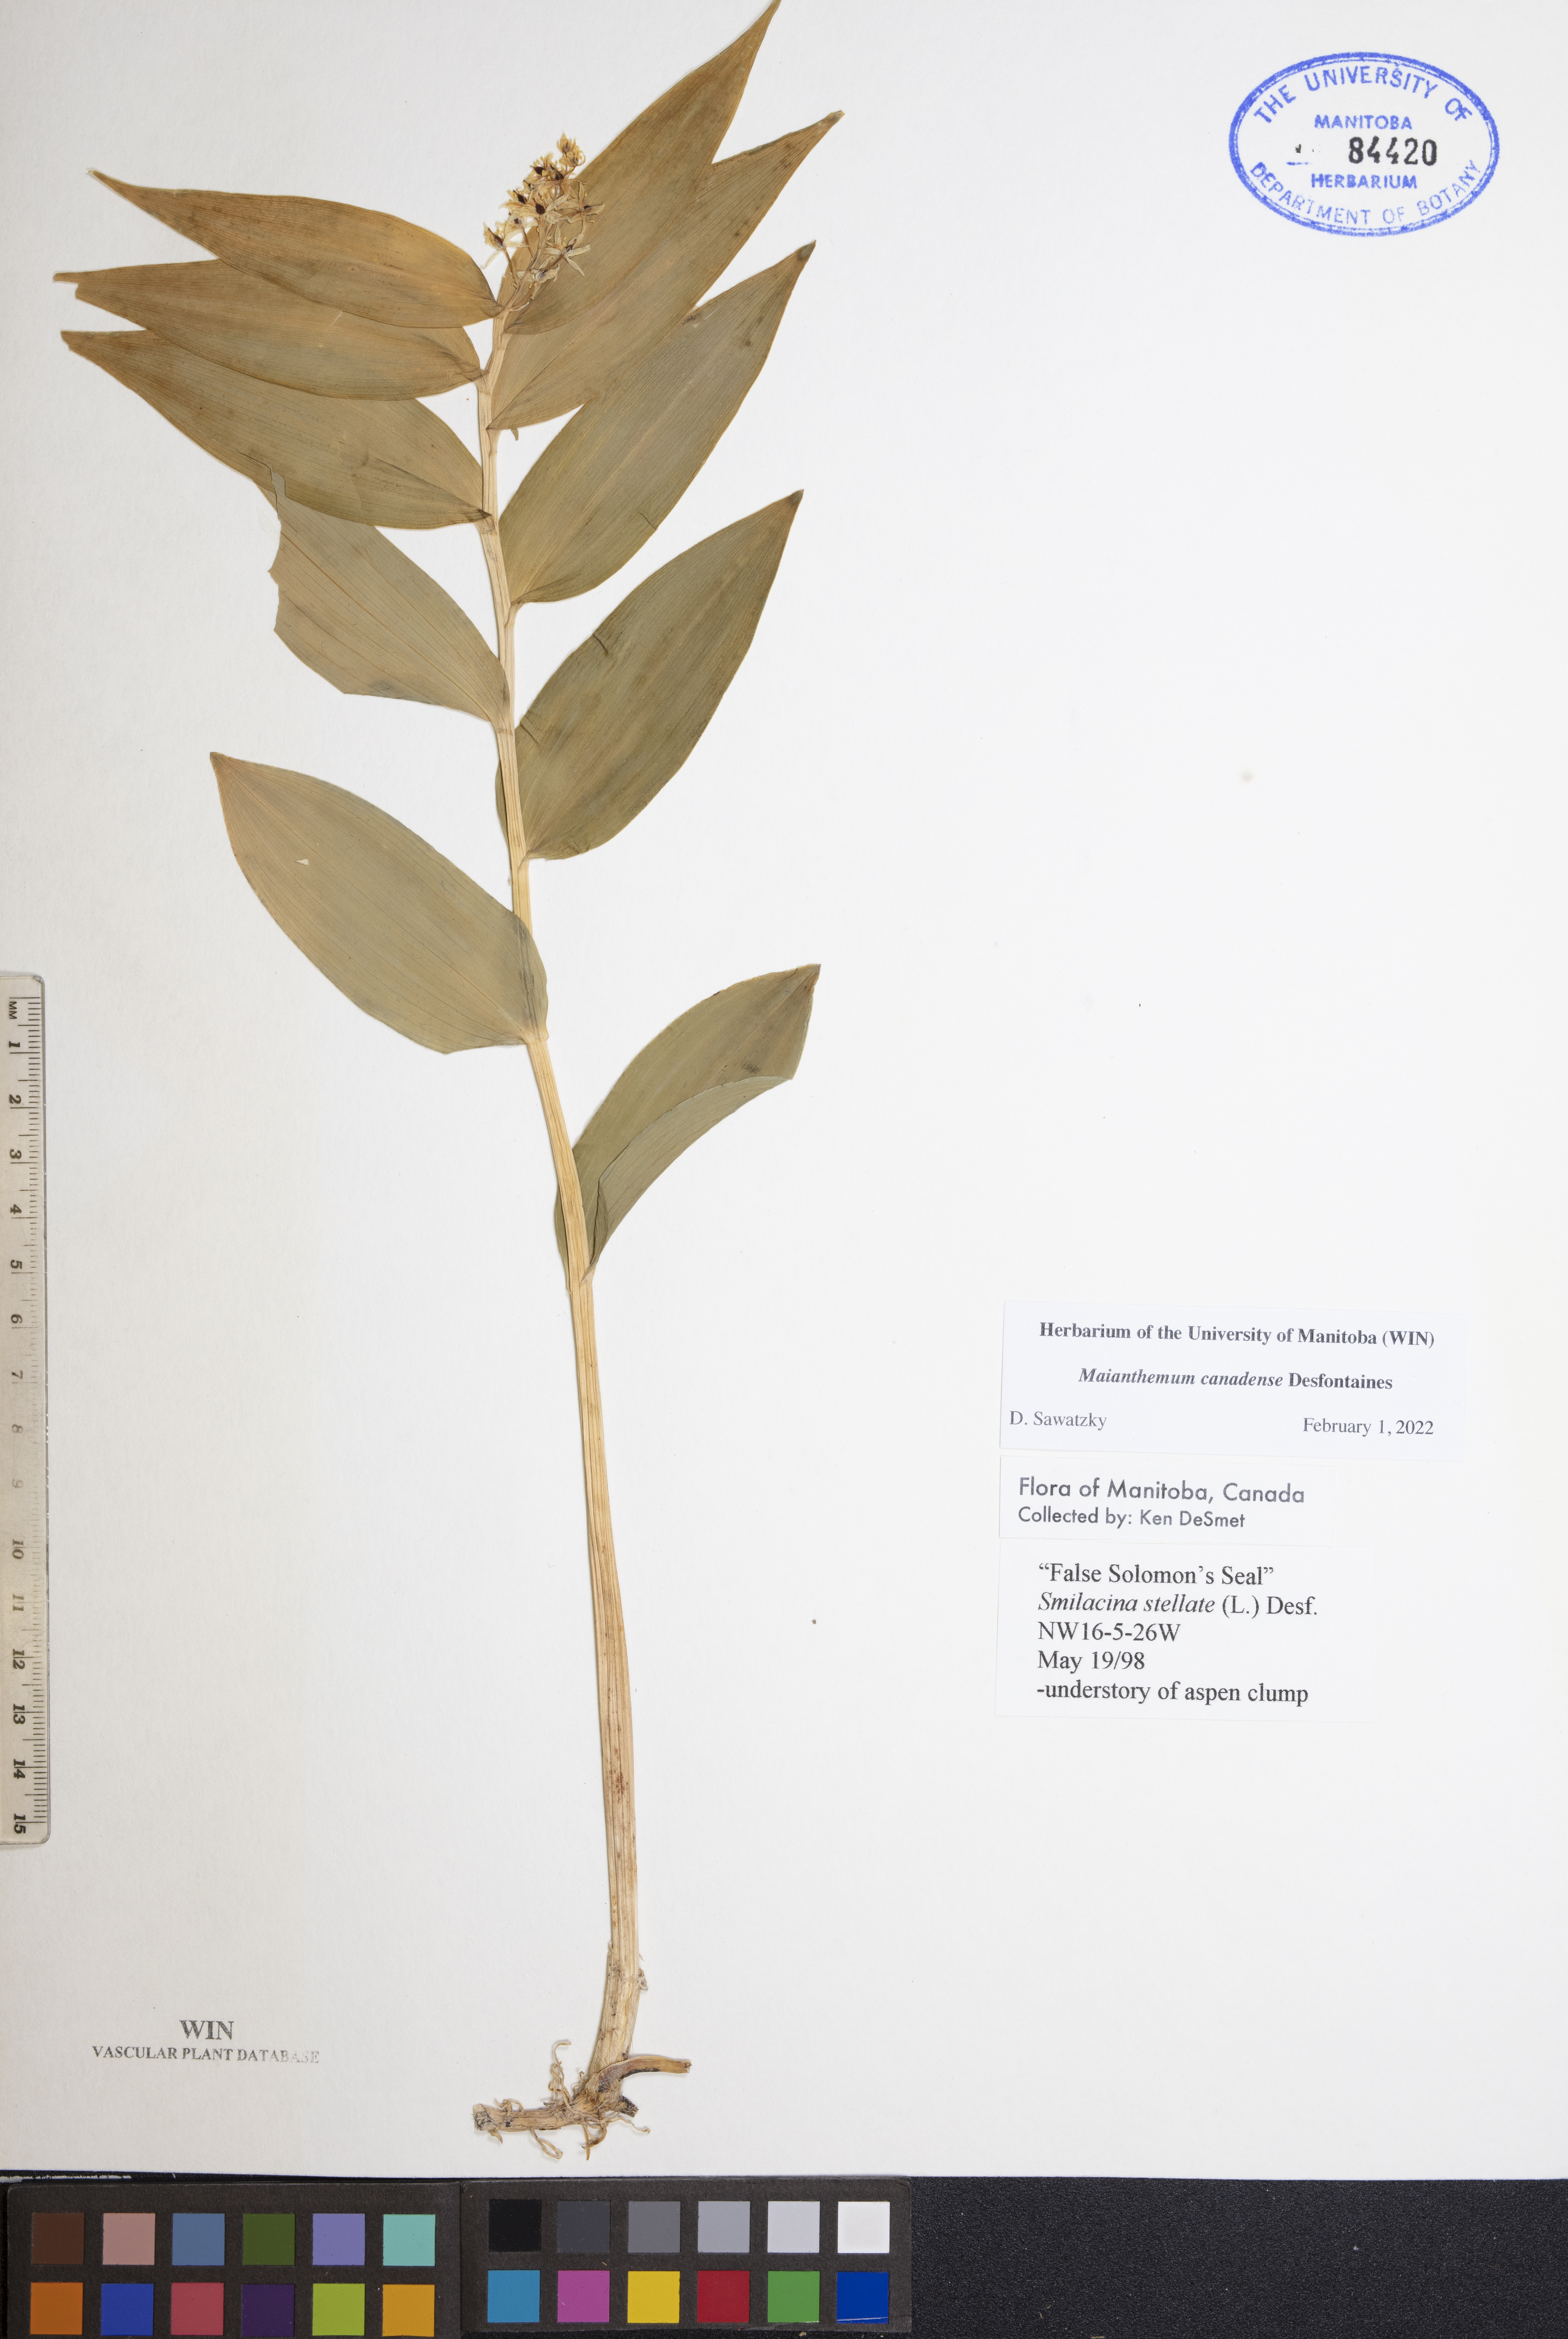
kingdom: Plantae
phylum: Tracheophyta
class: Liliopsida
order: Asparagales
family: Asparagaceae
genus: Maianthemum
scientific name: Maianthemum canadense
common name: False lily-of-the-valley
